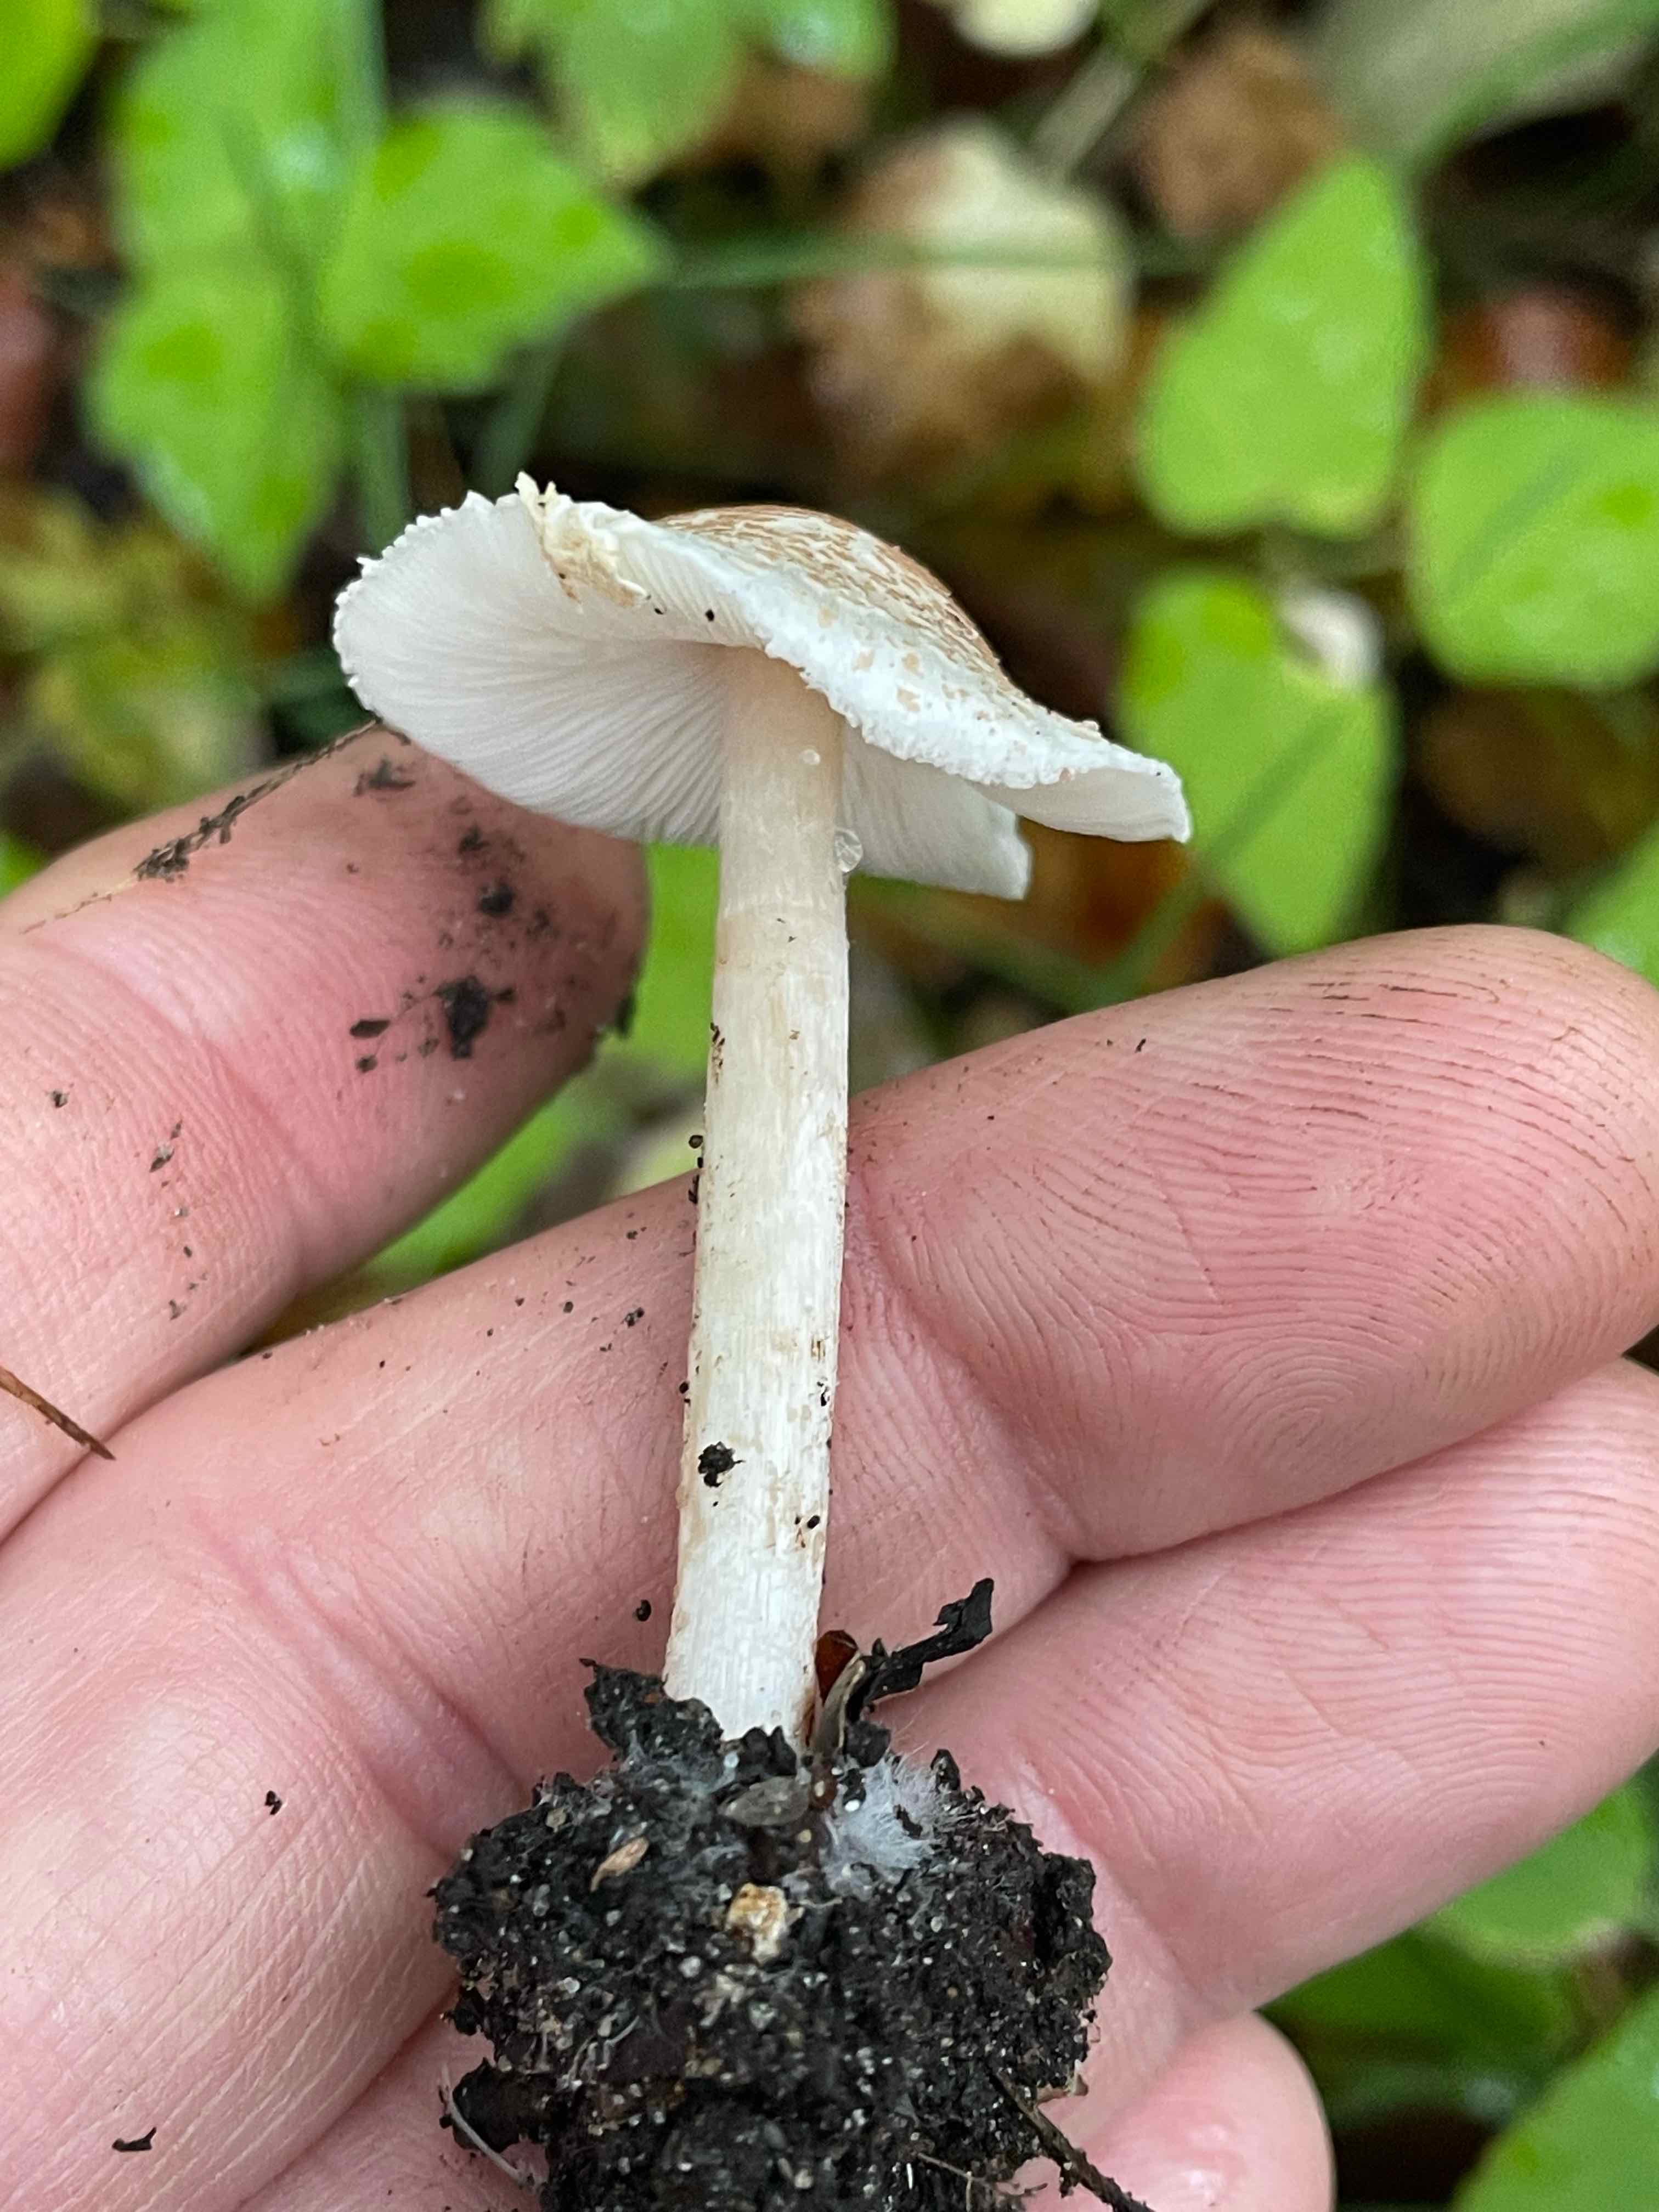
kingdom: Fungi
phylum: Basidiomycota
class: Agaricomycetes
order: Agaricales
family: Agaricaceae
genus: Lepiota
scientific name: Lepiota cristata
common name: stinkende parasolhat
